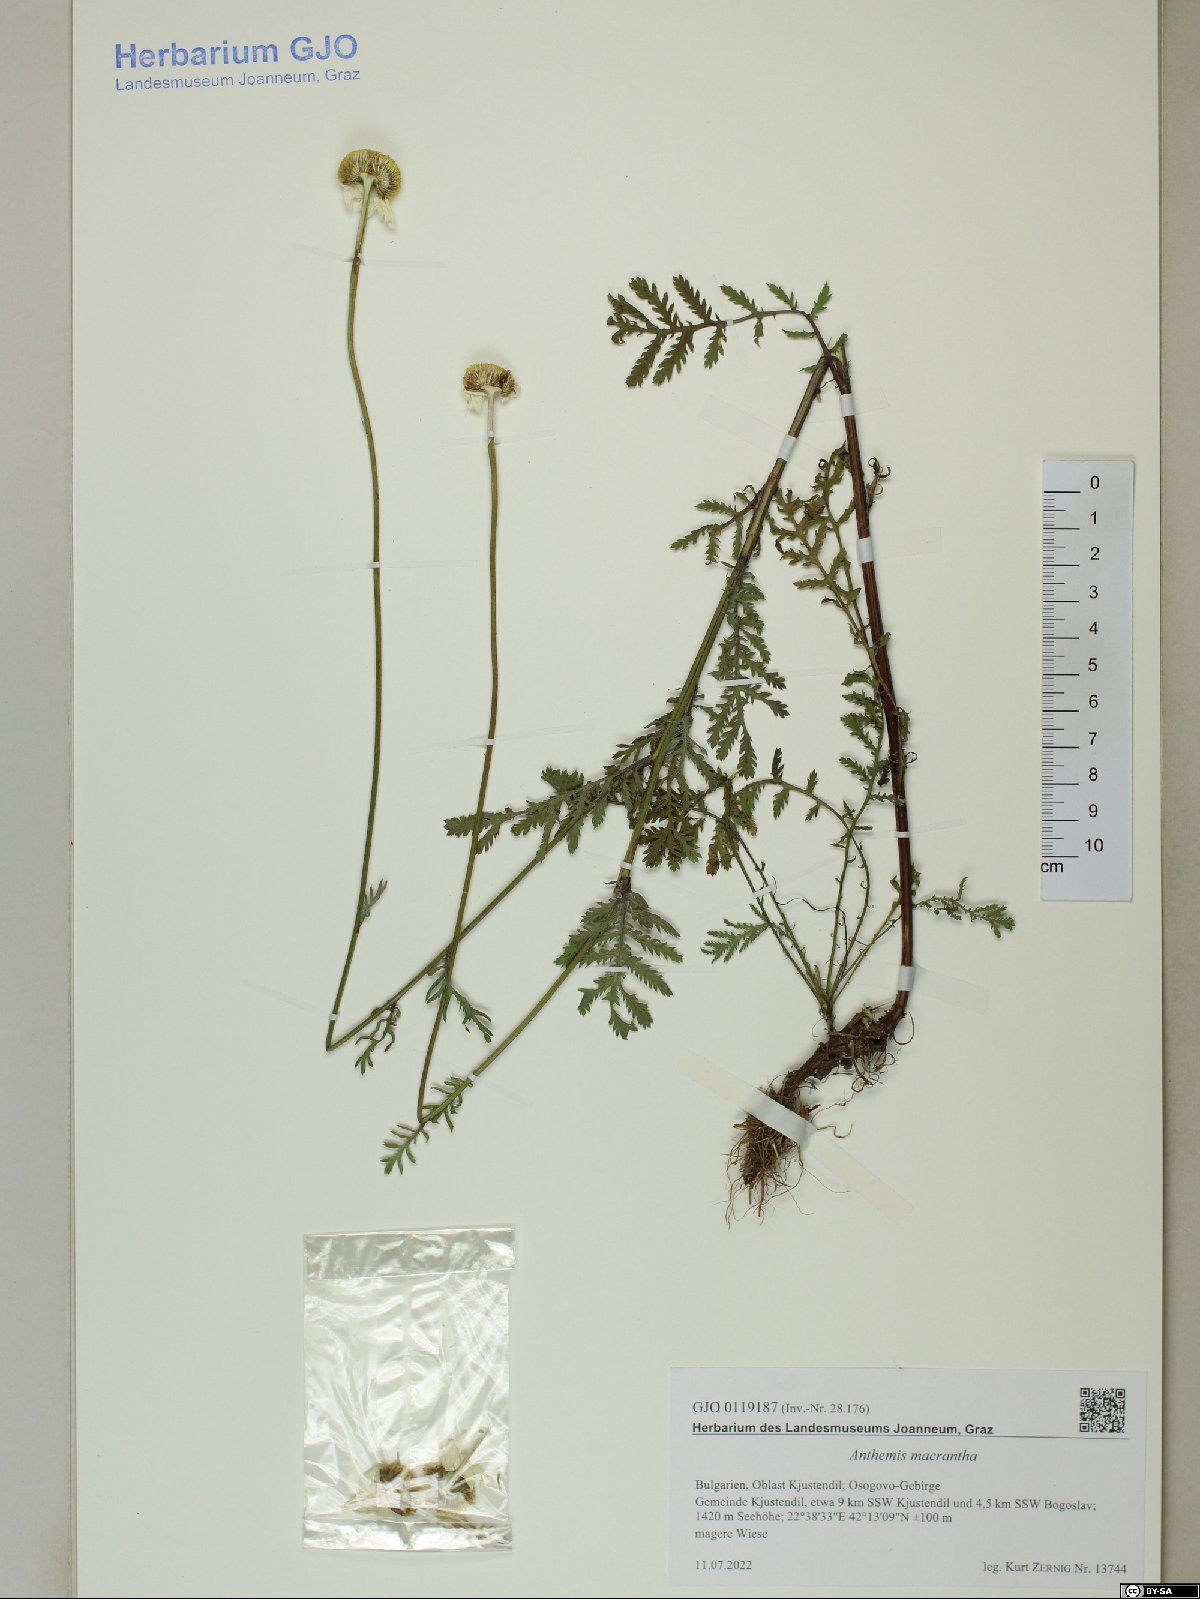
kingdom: Plantae
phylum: Tracheophyta
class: Magnoliopsida
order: Asterales
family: Asteraceae
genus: Cota
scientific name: Cota macrantha
